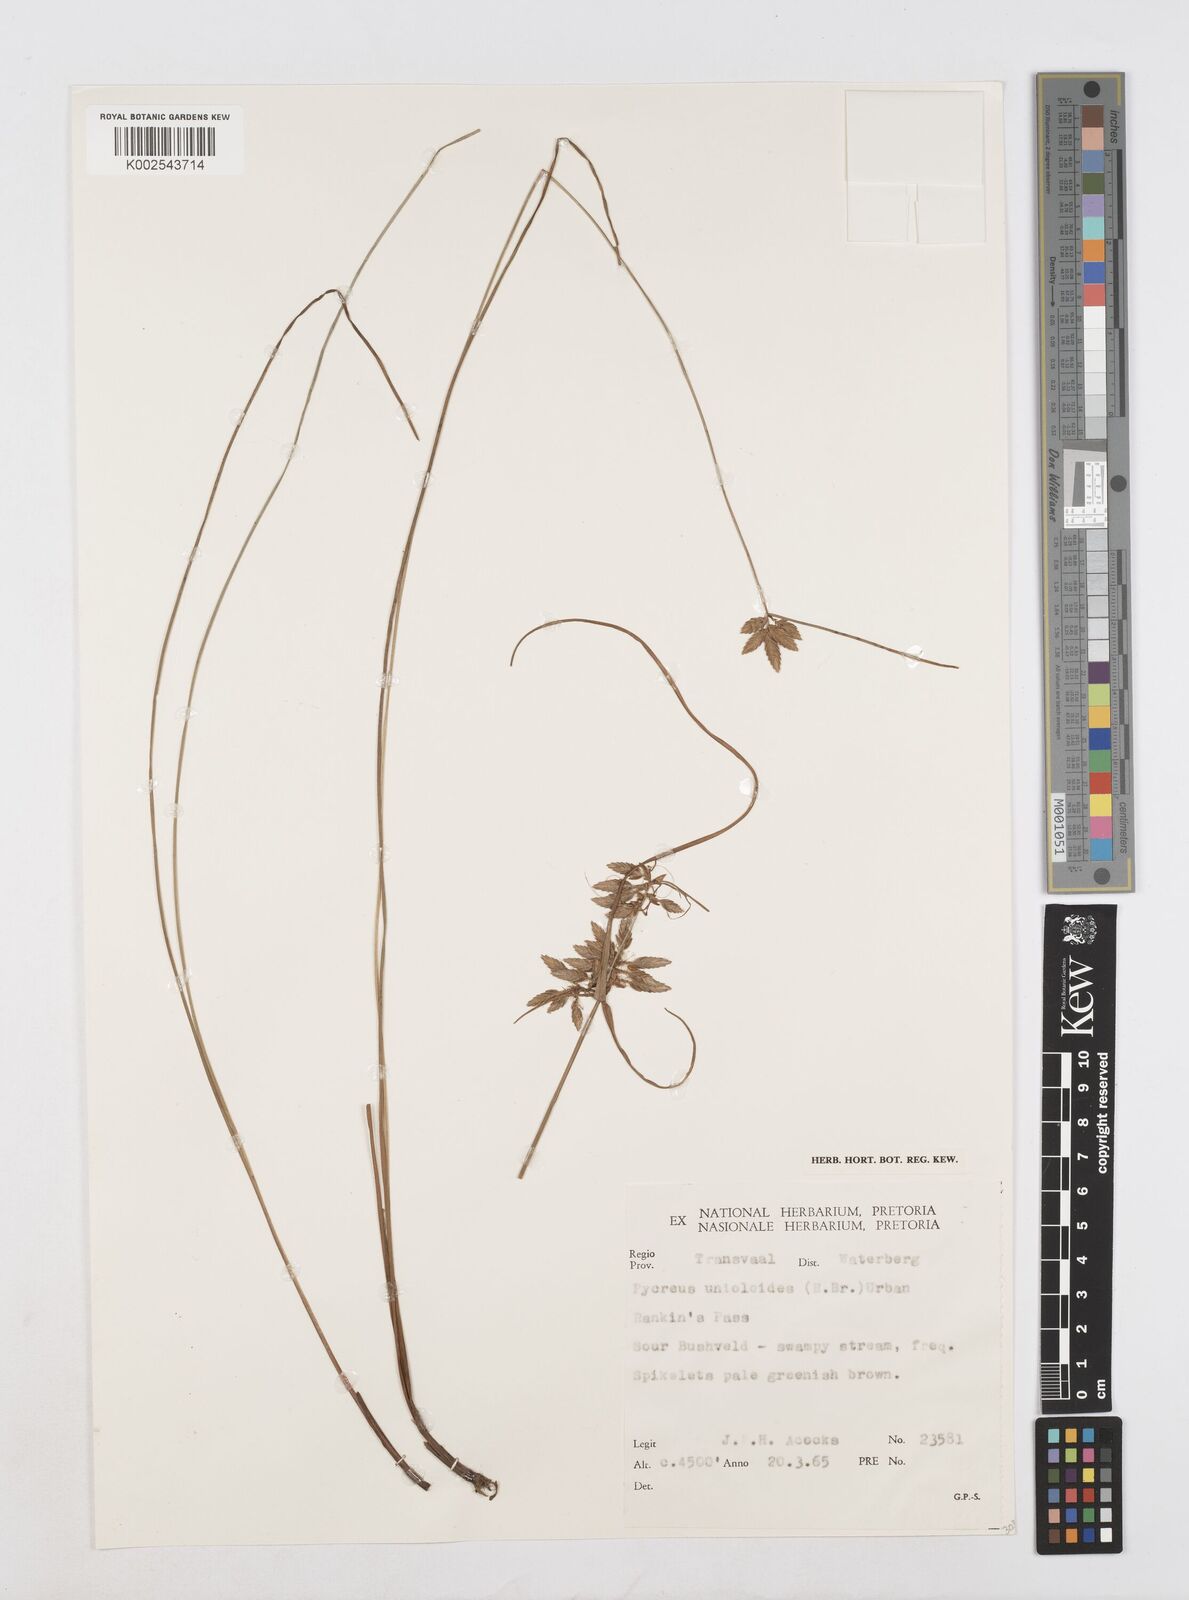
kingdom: Plantae
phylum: Tracheophyta
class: Liliopsida
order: Poales
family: Cyperaceae
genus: Cyperus
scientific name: Cyperus unioloides
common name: Uniola flatsedge
